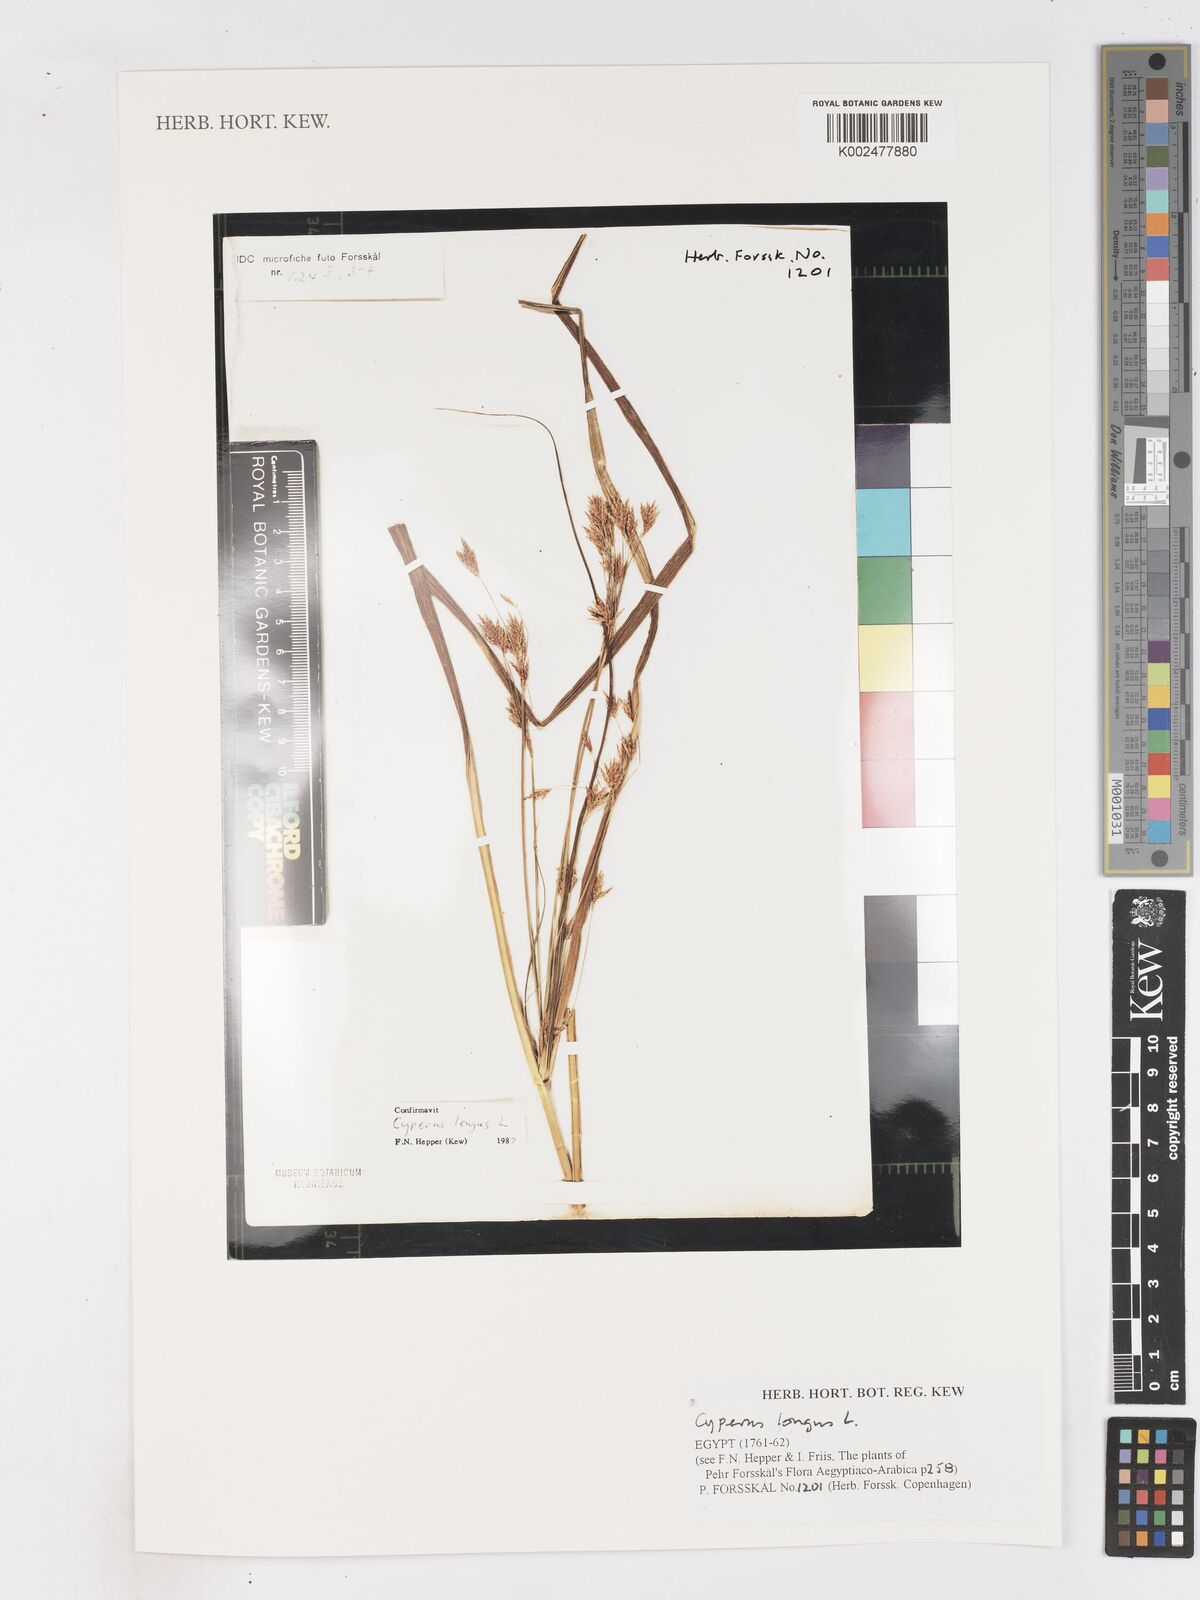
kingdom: Plantae
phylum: Tracheophyta
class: Liliopsida
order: Poales
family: Cyperaceae
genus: Cyperus
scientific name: Cyperus longus
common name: Galingale
